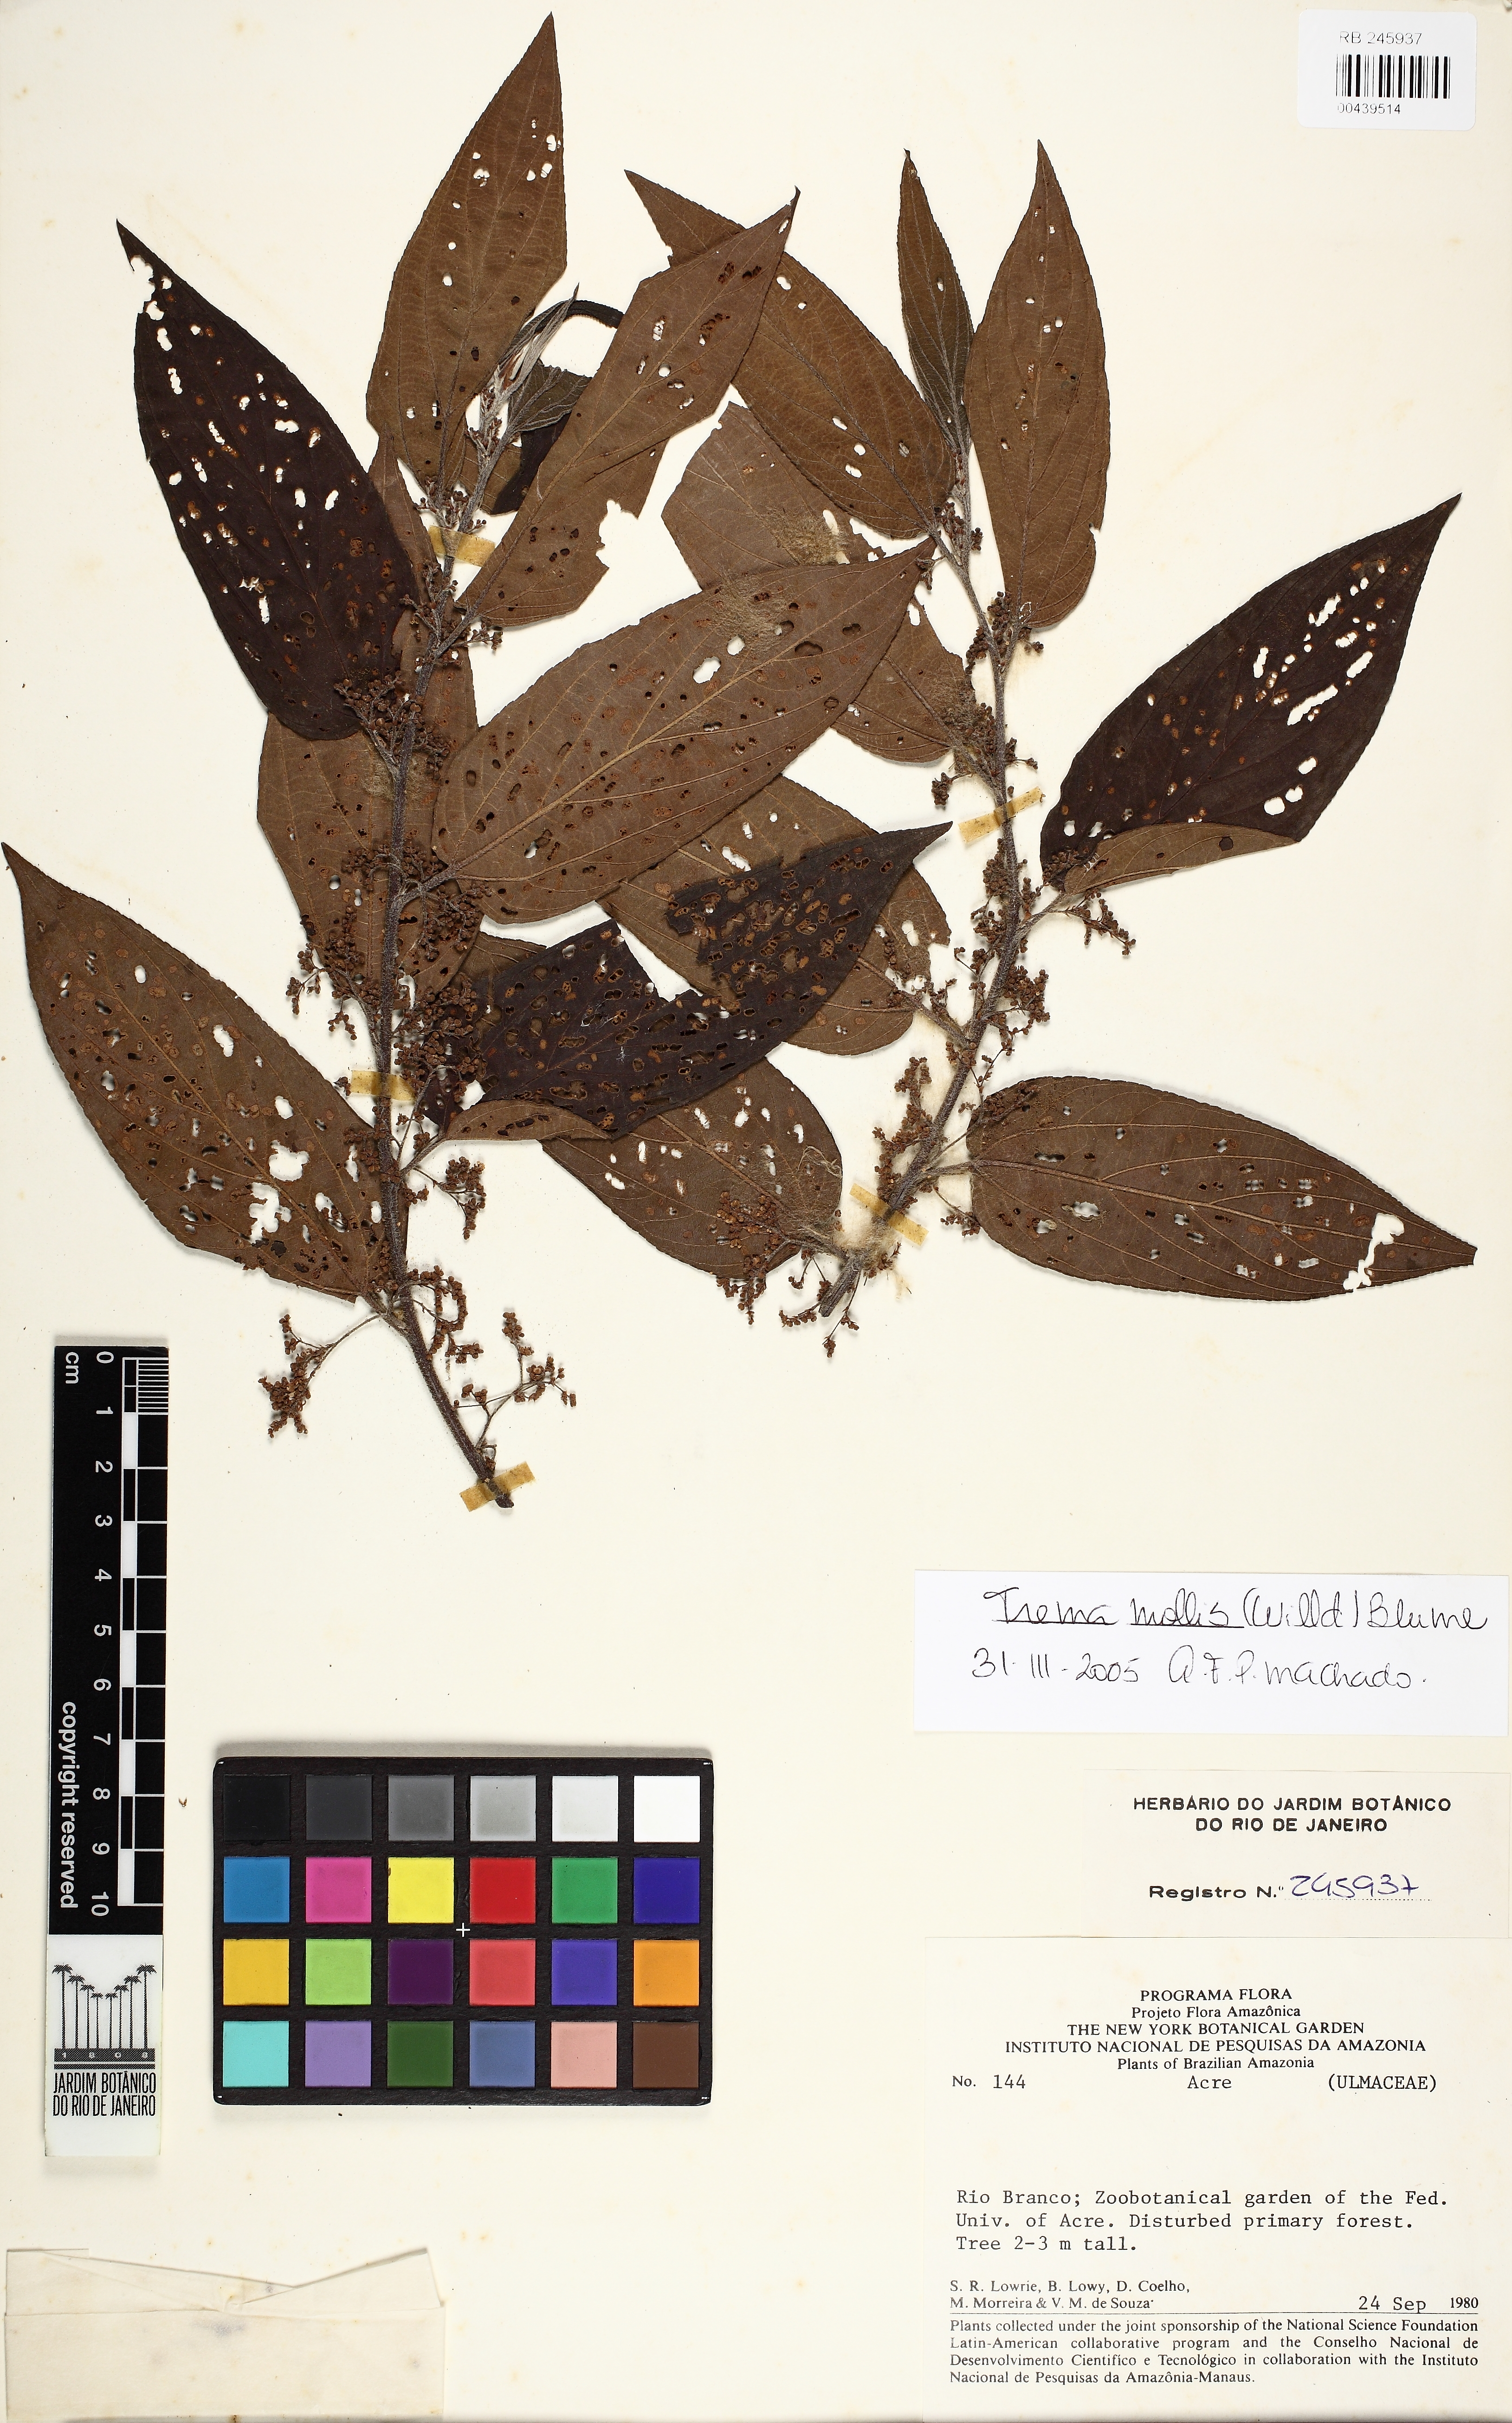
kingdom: Plantae
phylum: Tracheophyta
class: Magnoliopsida
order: Rosales
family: Cannabaceae
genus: Trema
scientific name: Trema micranthum
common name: Jamaican nettletree
